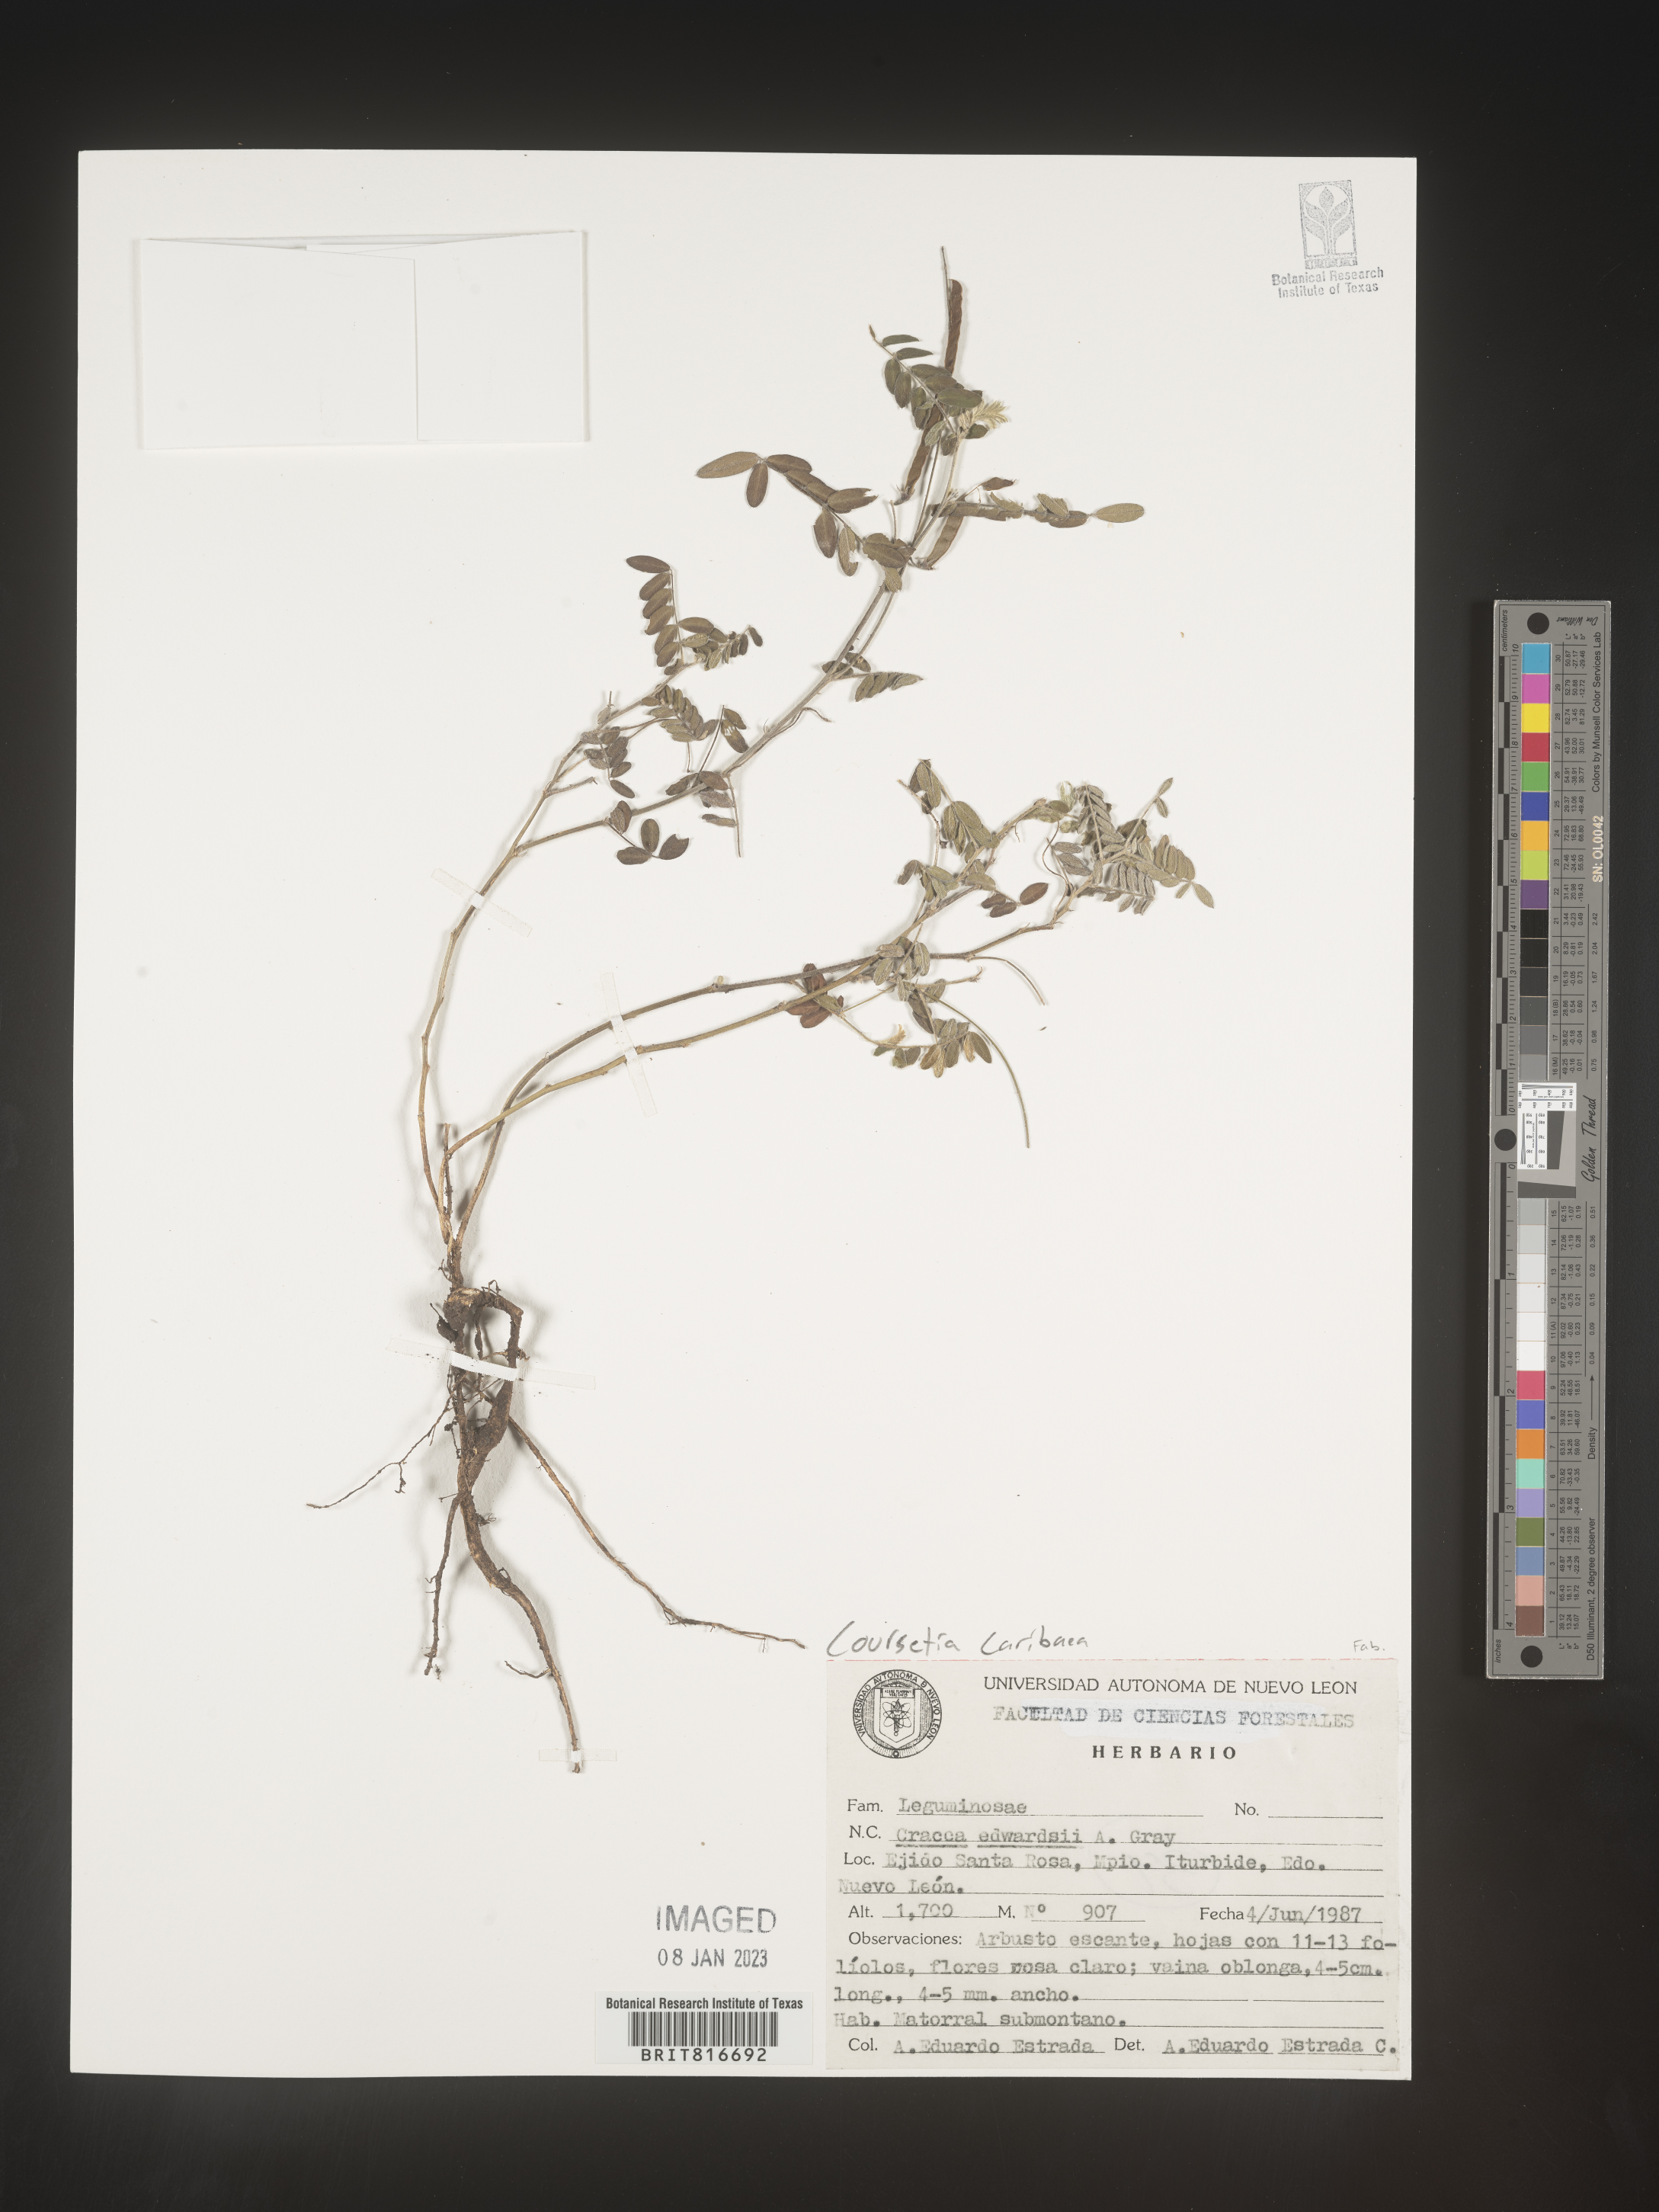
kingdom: Plantae
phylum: Tracheophyta
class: Magnoliopsida
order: Fabales
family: Fabaceae
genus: Coursetia
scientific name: Coursetia
